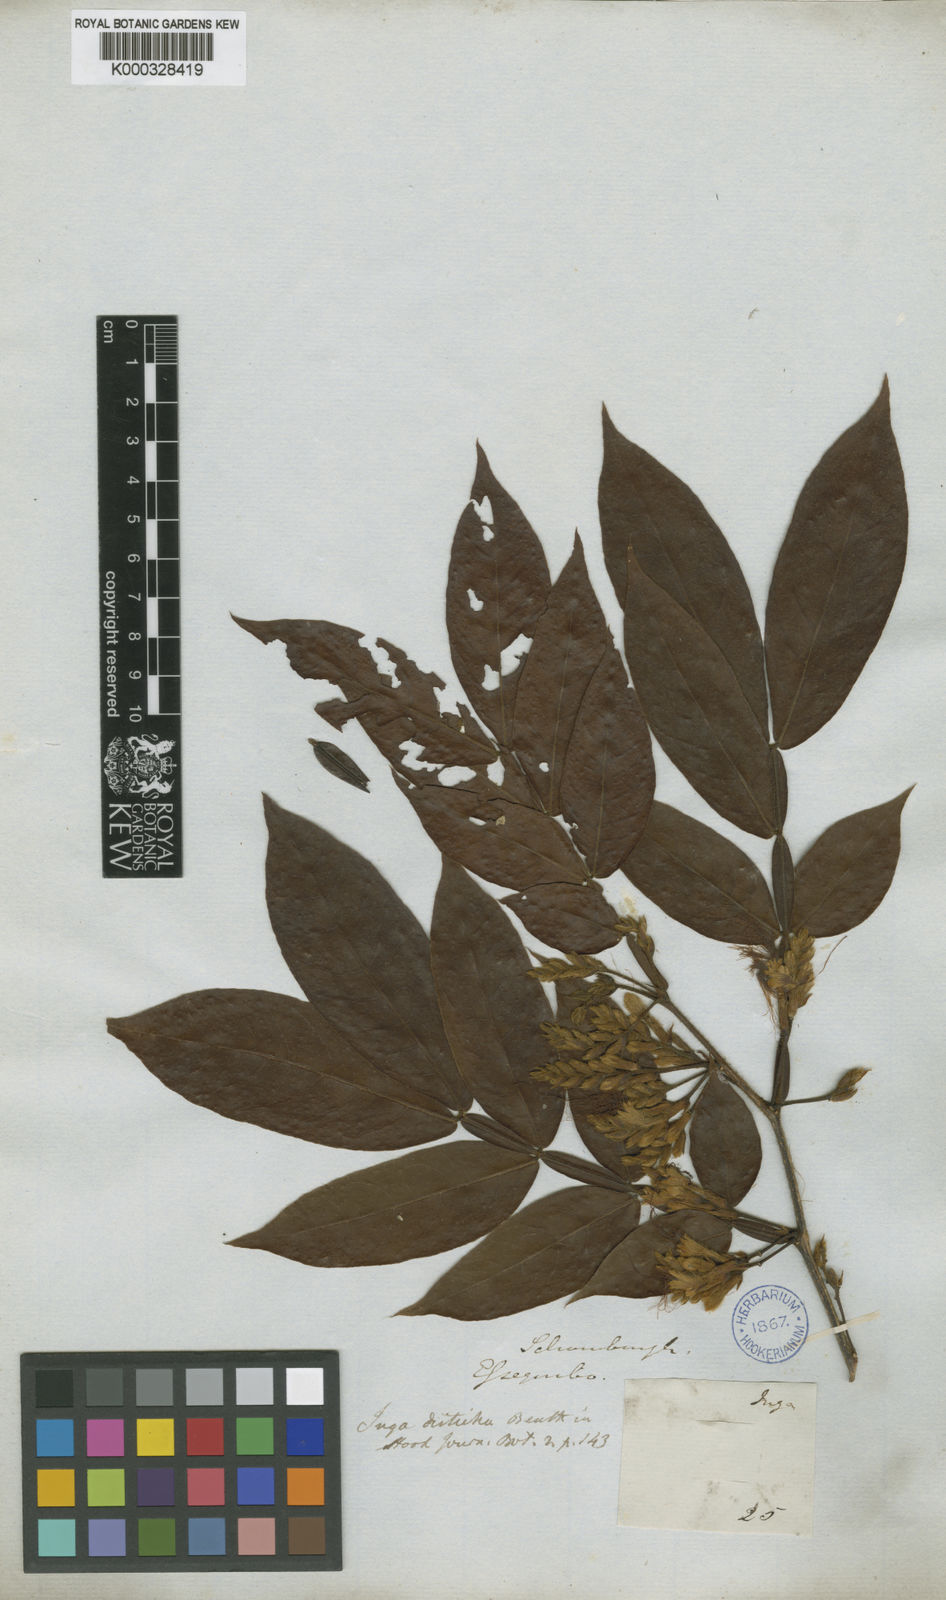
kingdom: Plantae
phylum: Tracheophyta
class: Magnoliopsida
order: Fabales
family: Fabaceae
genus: Inga
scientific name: Inga disticha
